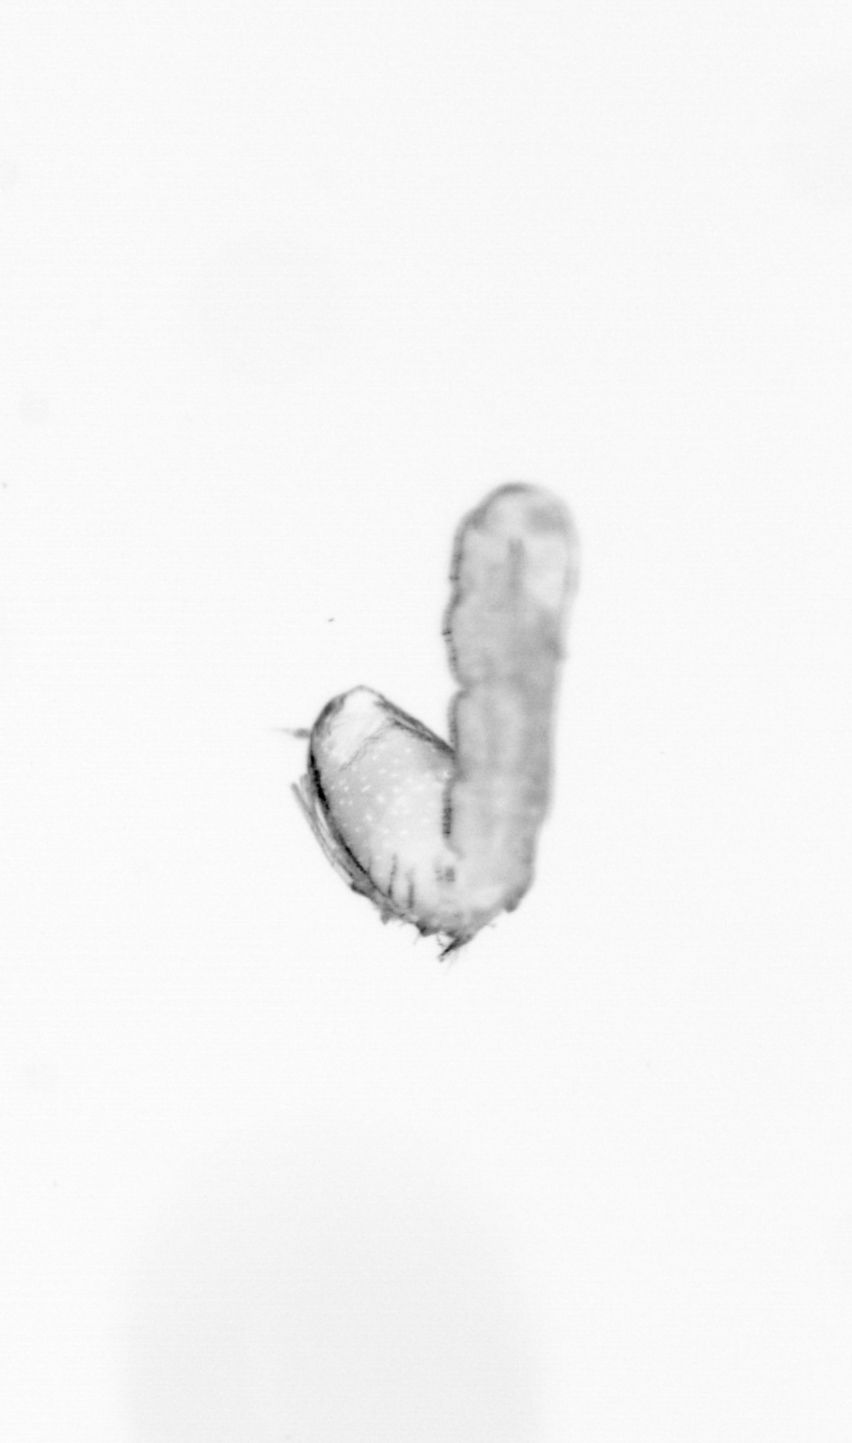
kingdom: Animalia
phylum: Annelida
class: Polychaeta
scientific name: Polychaeta
